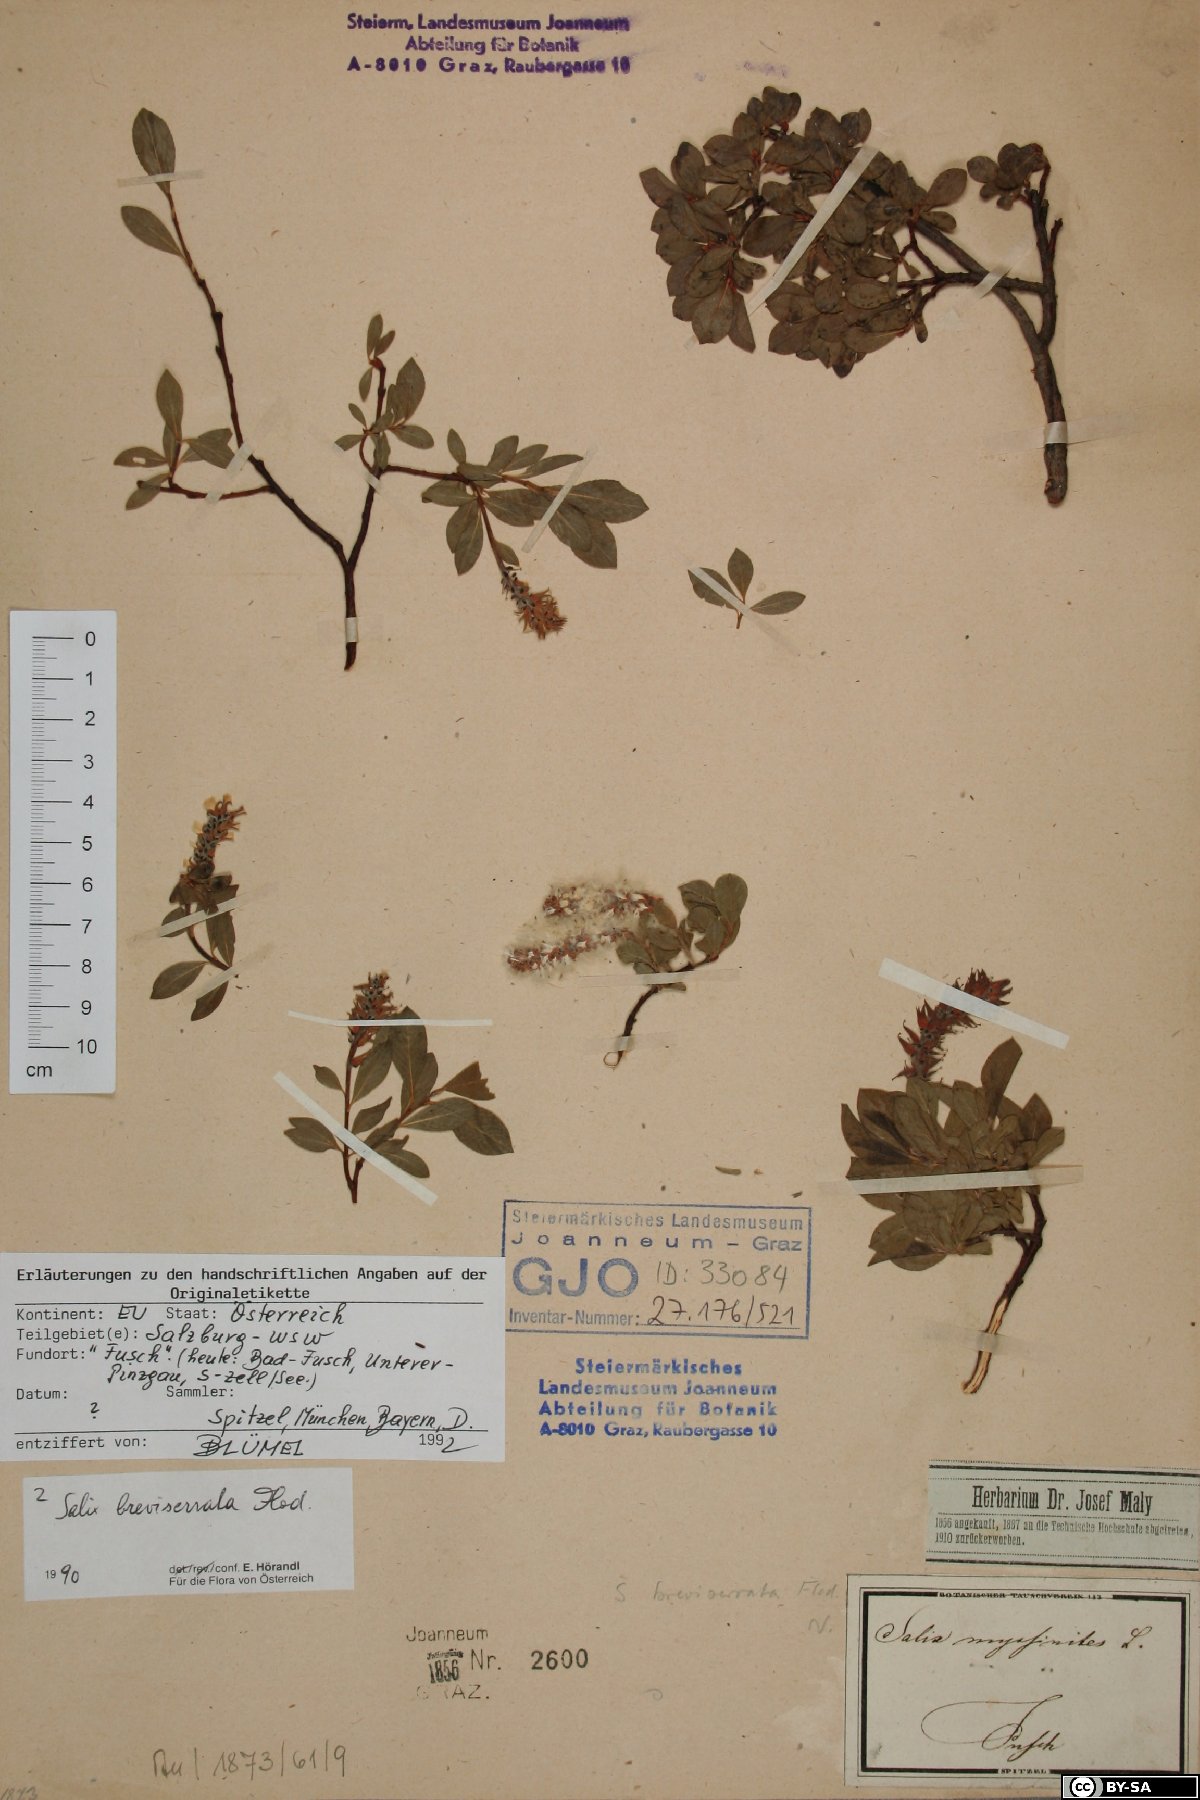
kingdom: Plantae
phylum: Tracheophyta
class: Magnoliopsida
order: Malpighiales
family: Salicaceae
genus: Salix
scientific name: Salix breviserrata
